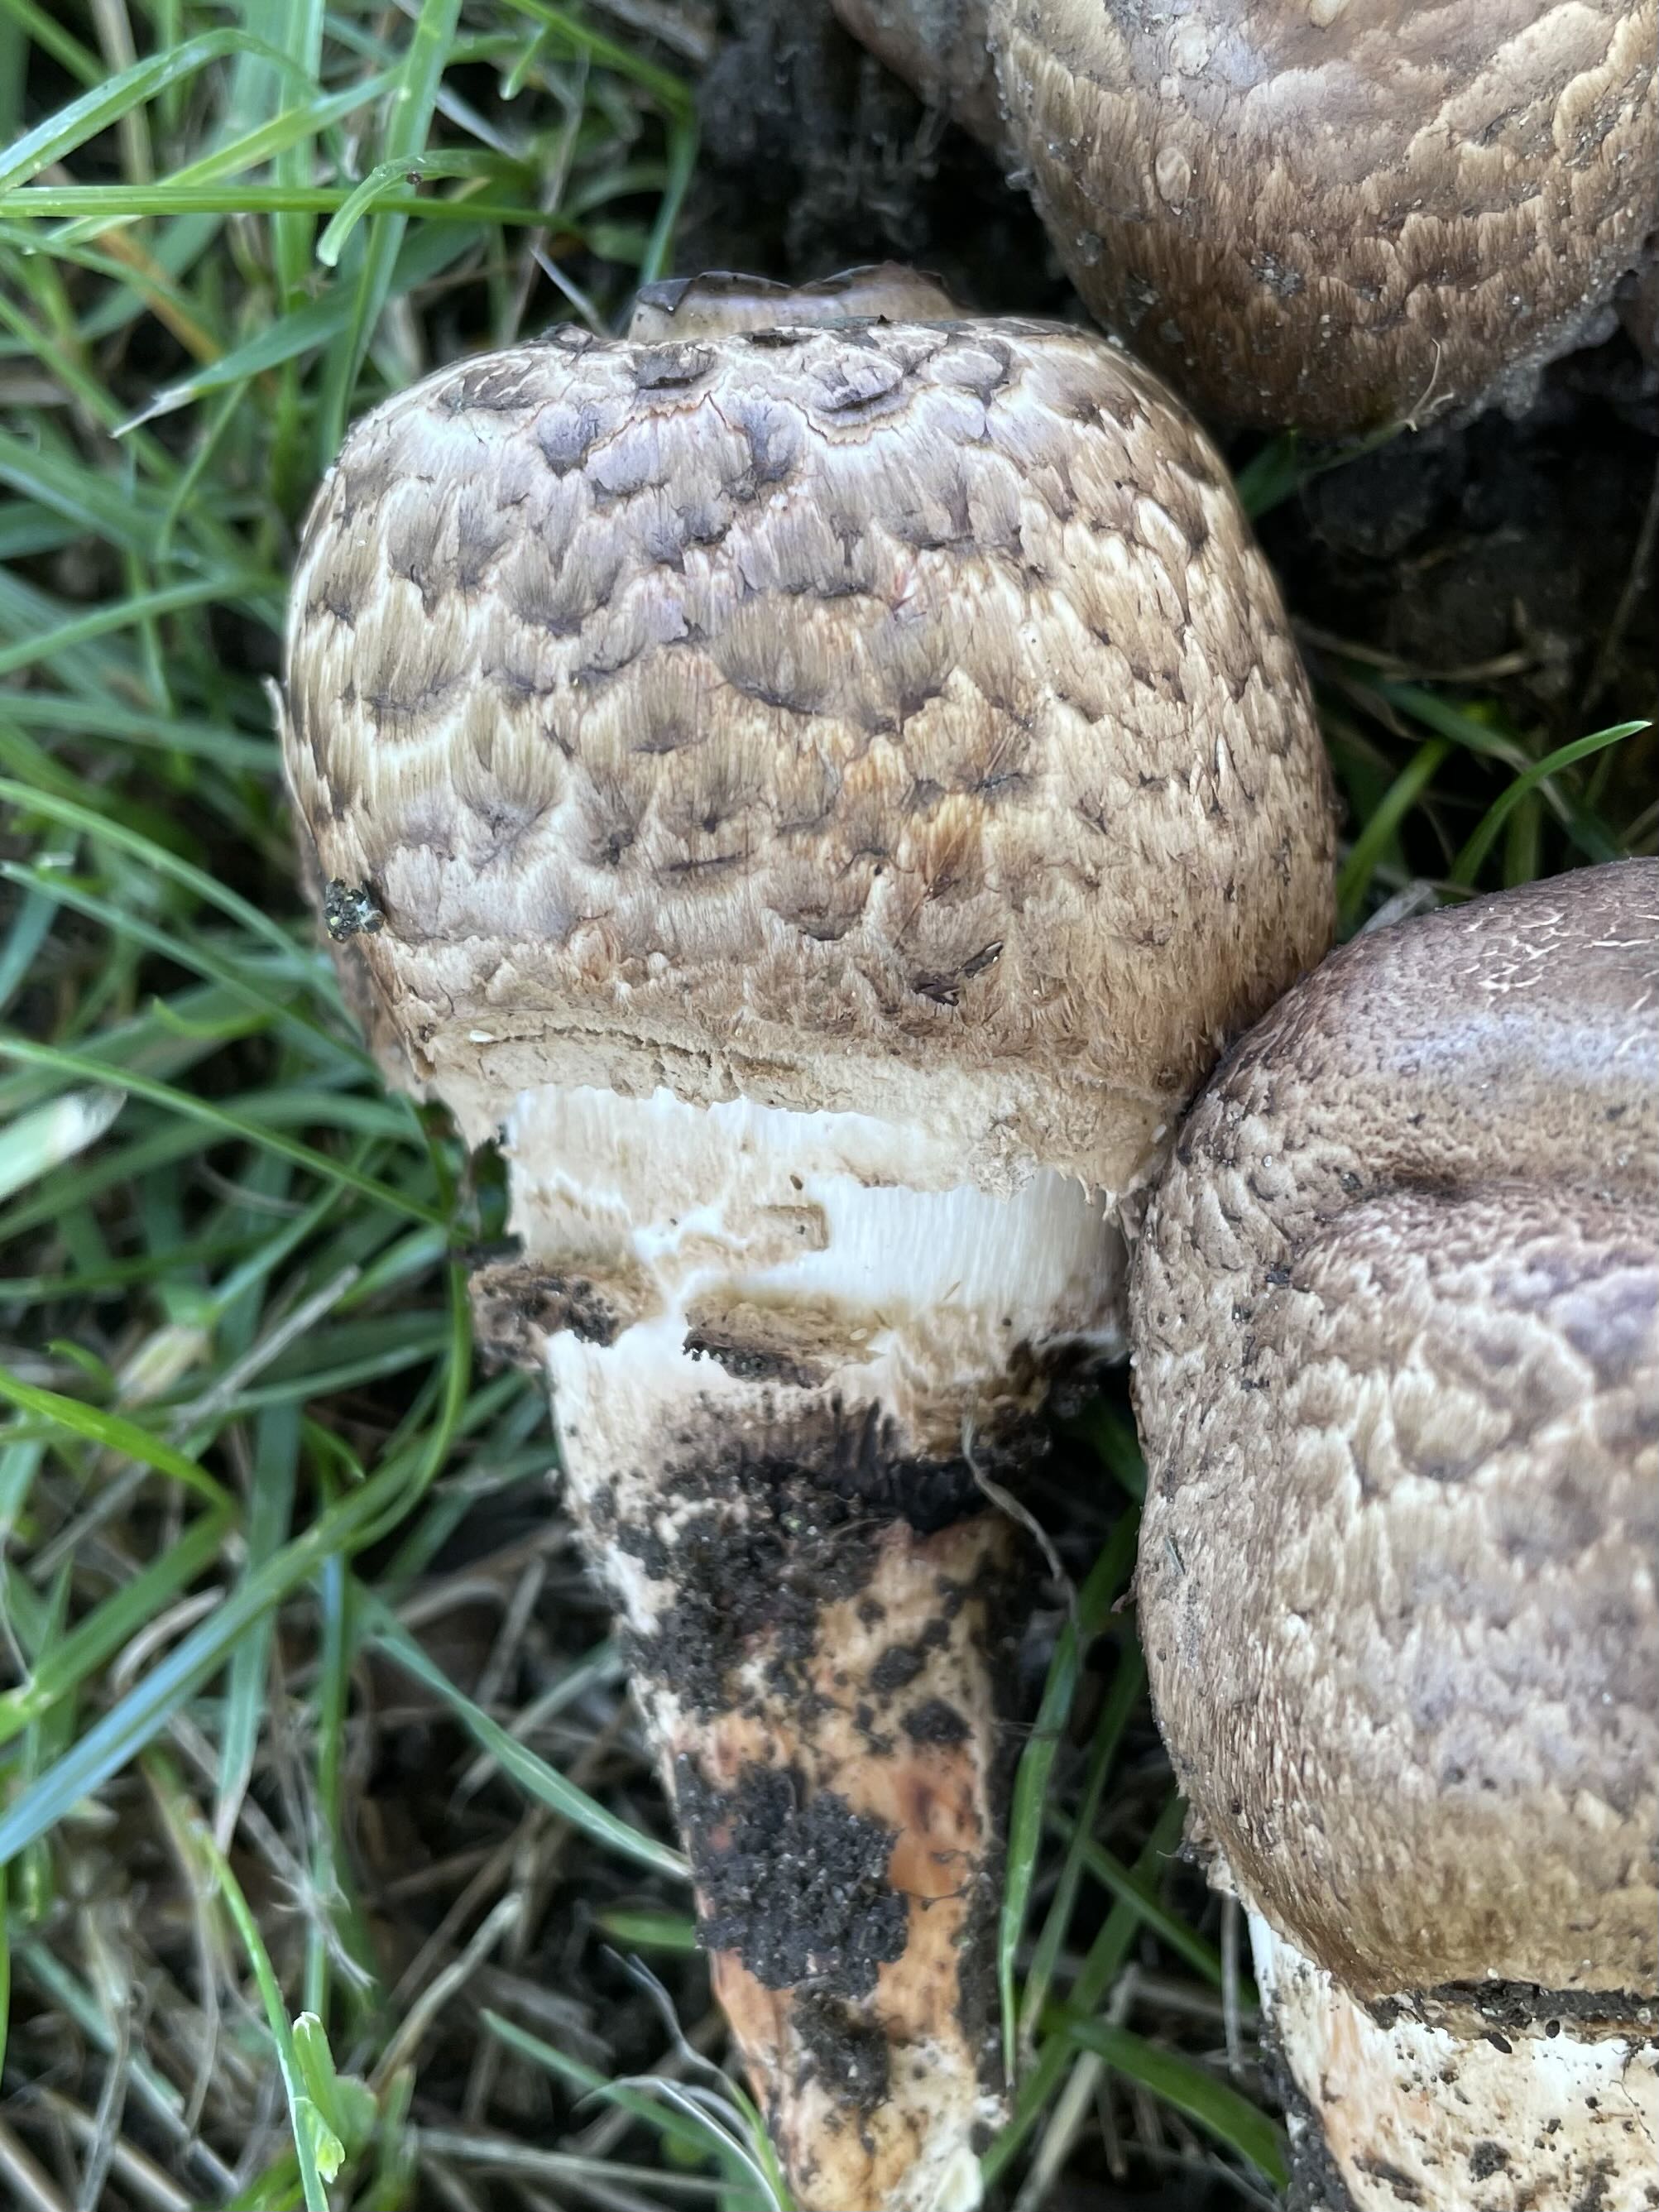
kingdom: Fungi
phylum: Basidiomycota
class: Agaricomycetes
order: Agaricales
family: Agaricaceae
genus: Agaricus
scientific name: Agaricus bohusii
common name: krumskællet champignon
